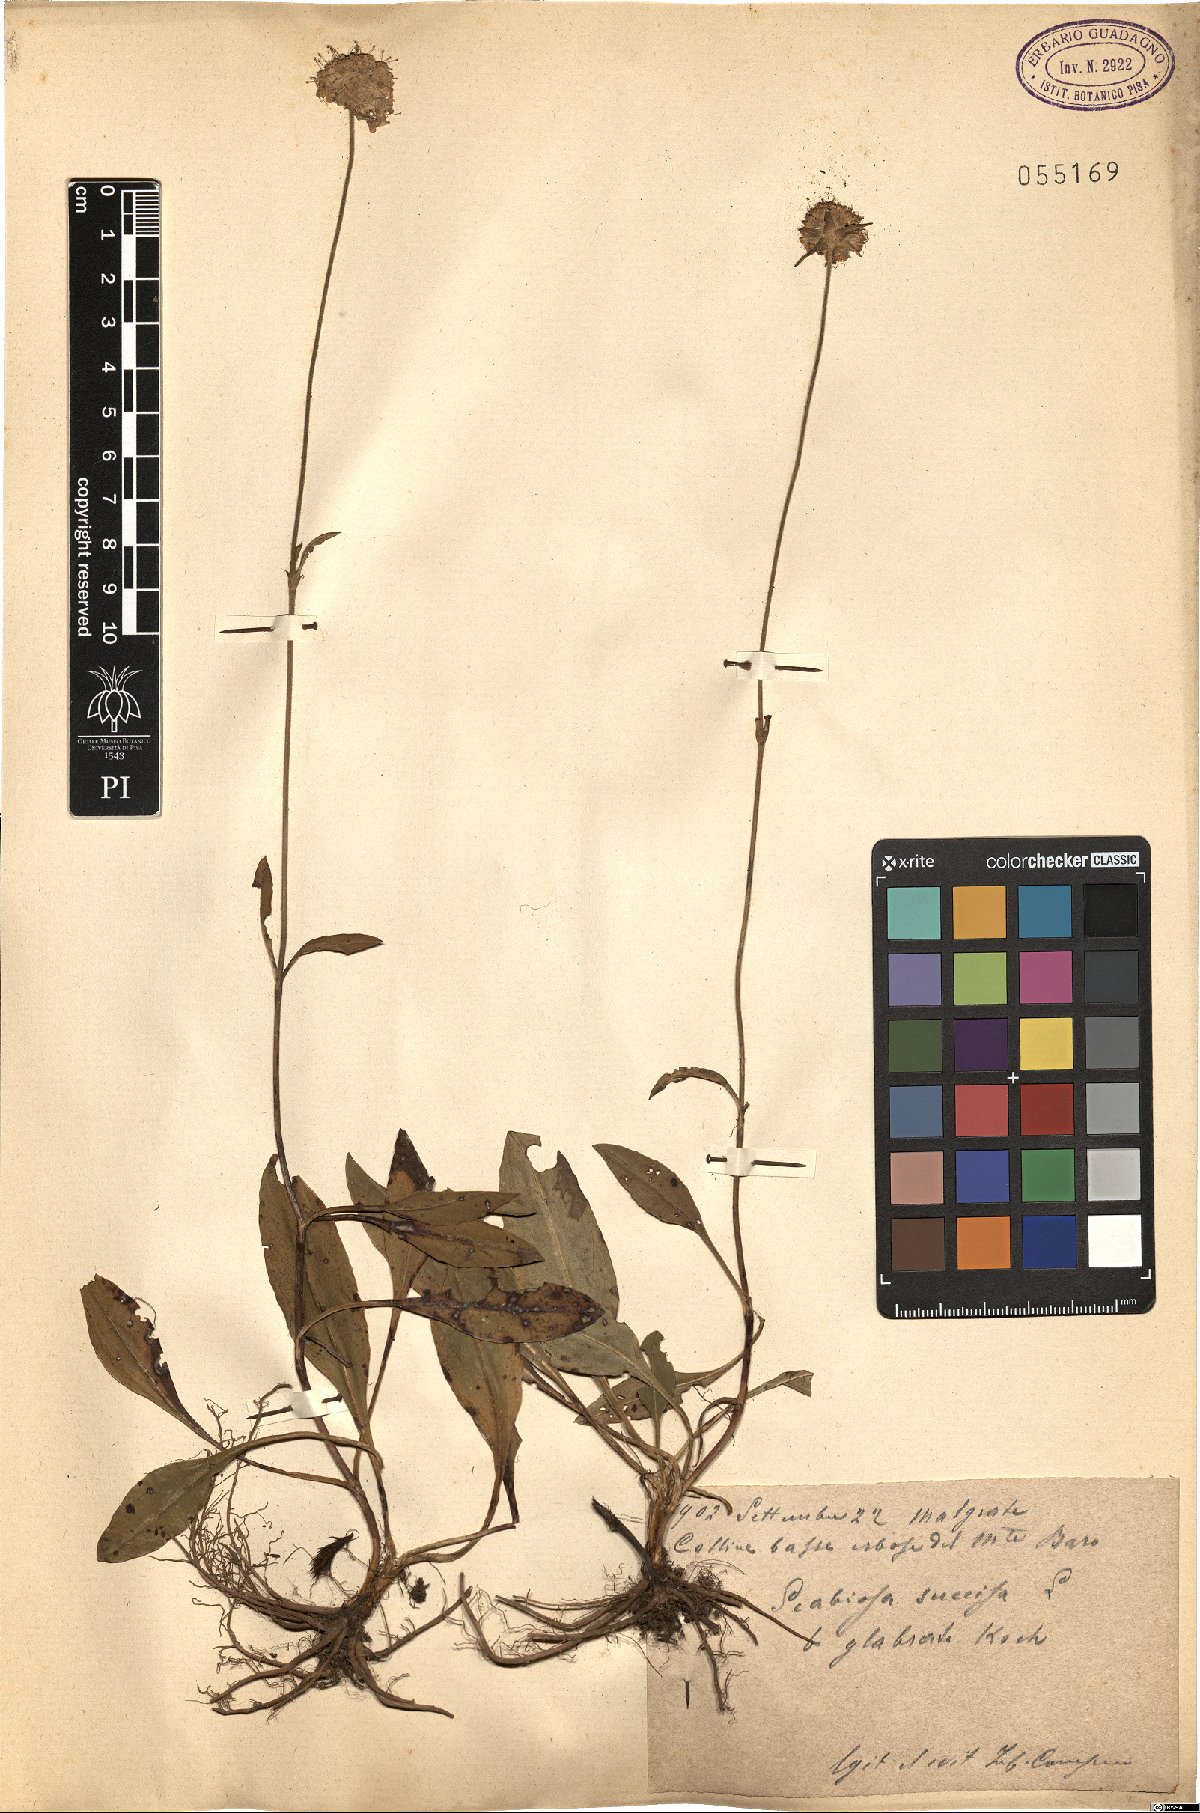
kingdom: Plantae
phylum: Tracheophyta
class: Magnoliopsida
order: Dipsacales
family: Caprifoliaceae
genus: Succisa
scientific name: Succisa pratensis
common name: Devil's-bit
